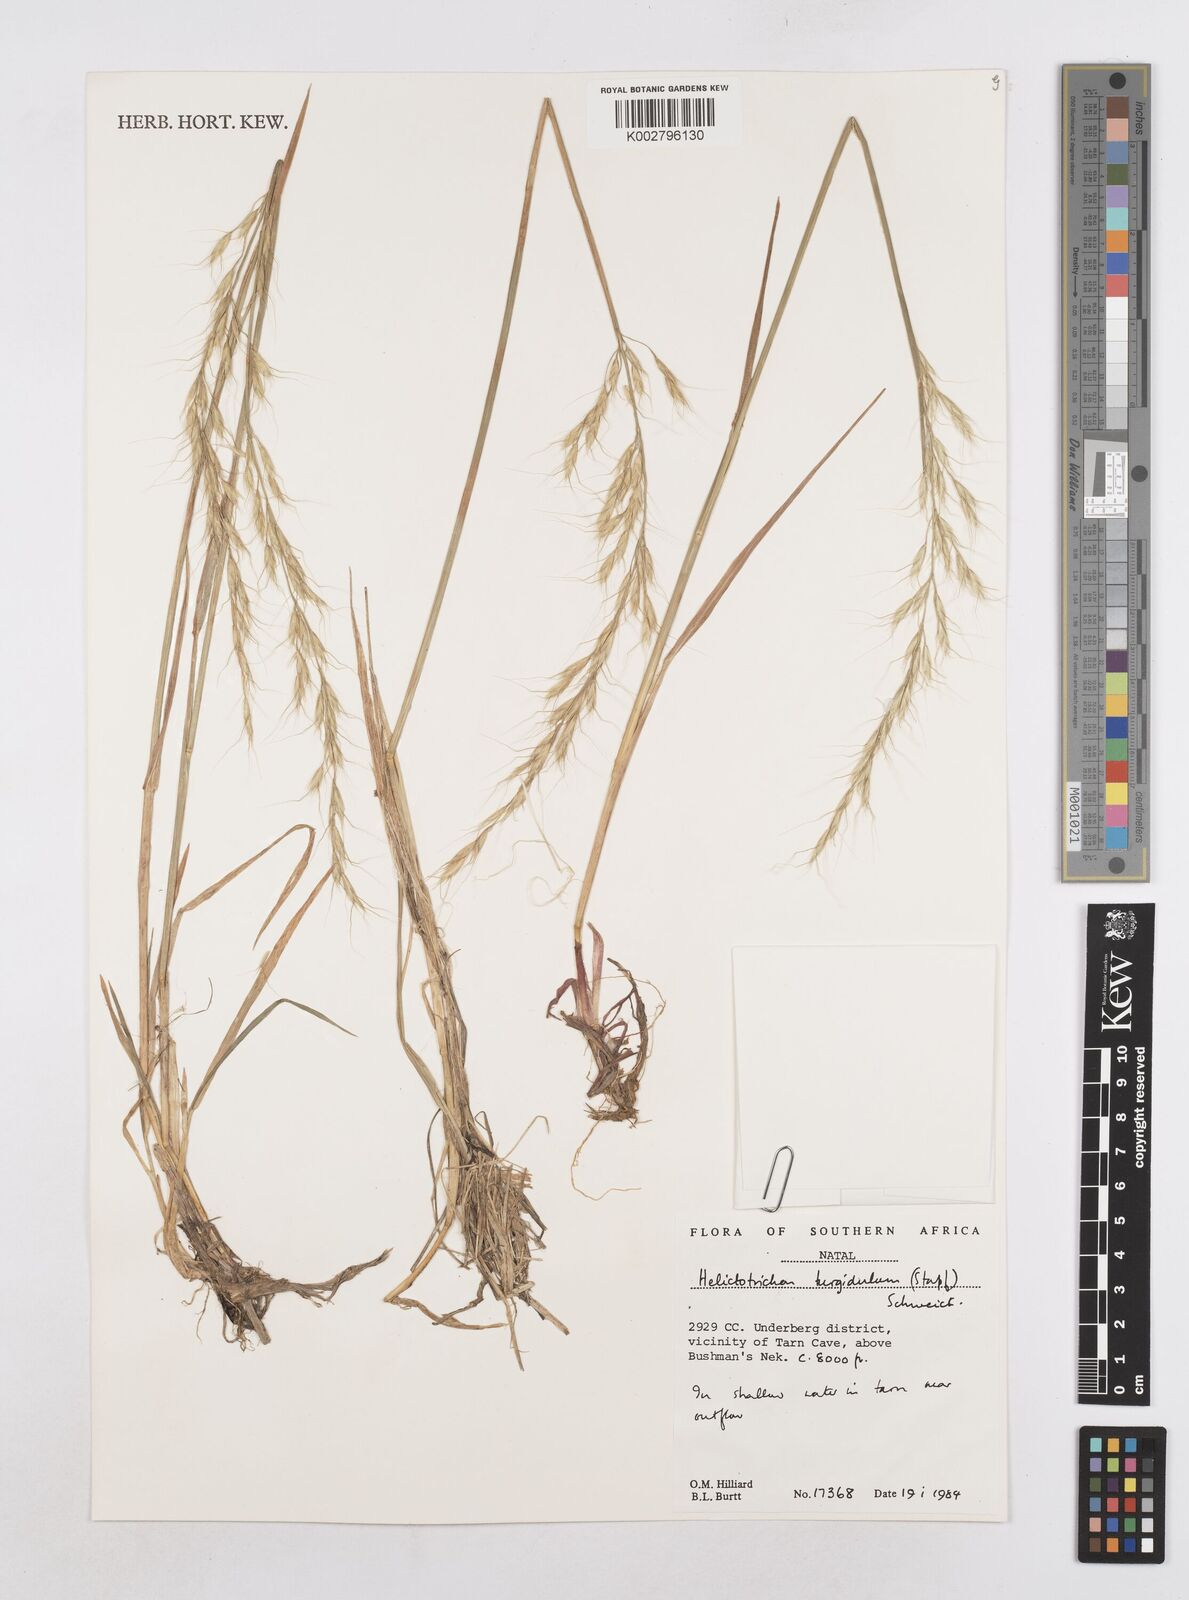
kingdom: Plantae
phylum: Tracheophyta
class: Liliopsida
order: Poales
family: Poaceae
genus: Trisetopsis
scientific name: Trisetopsis imberbis
